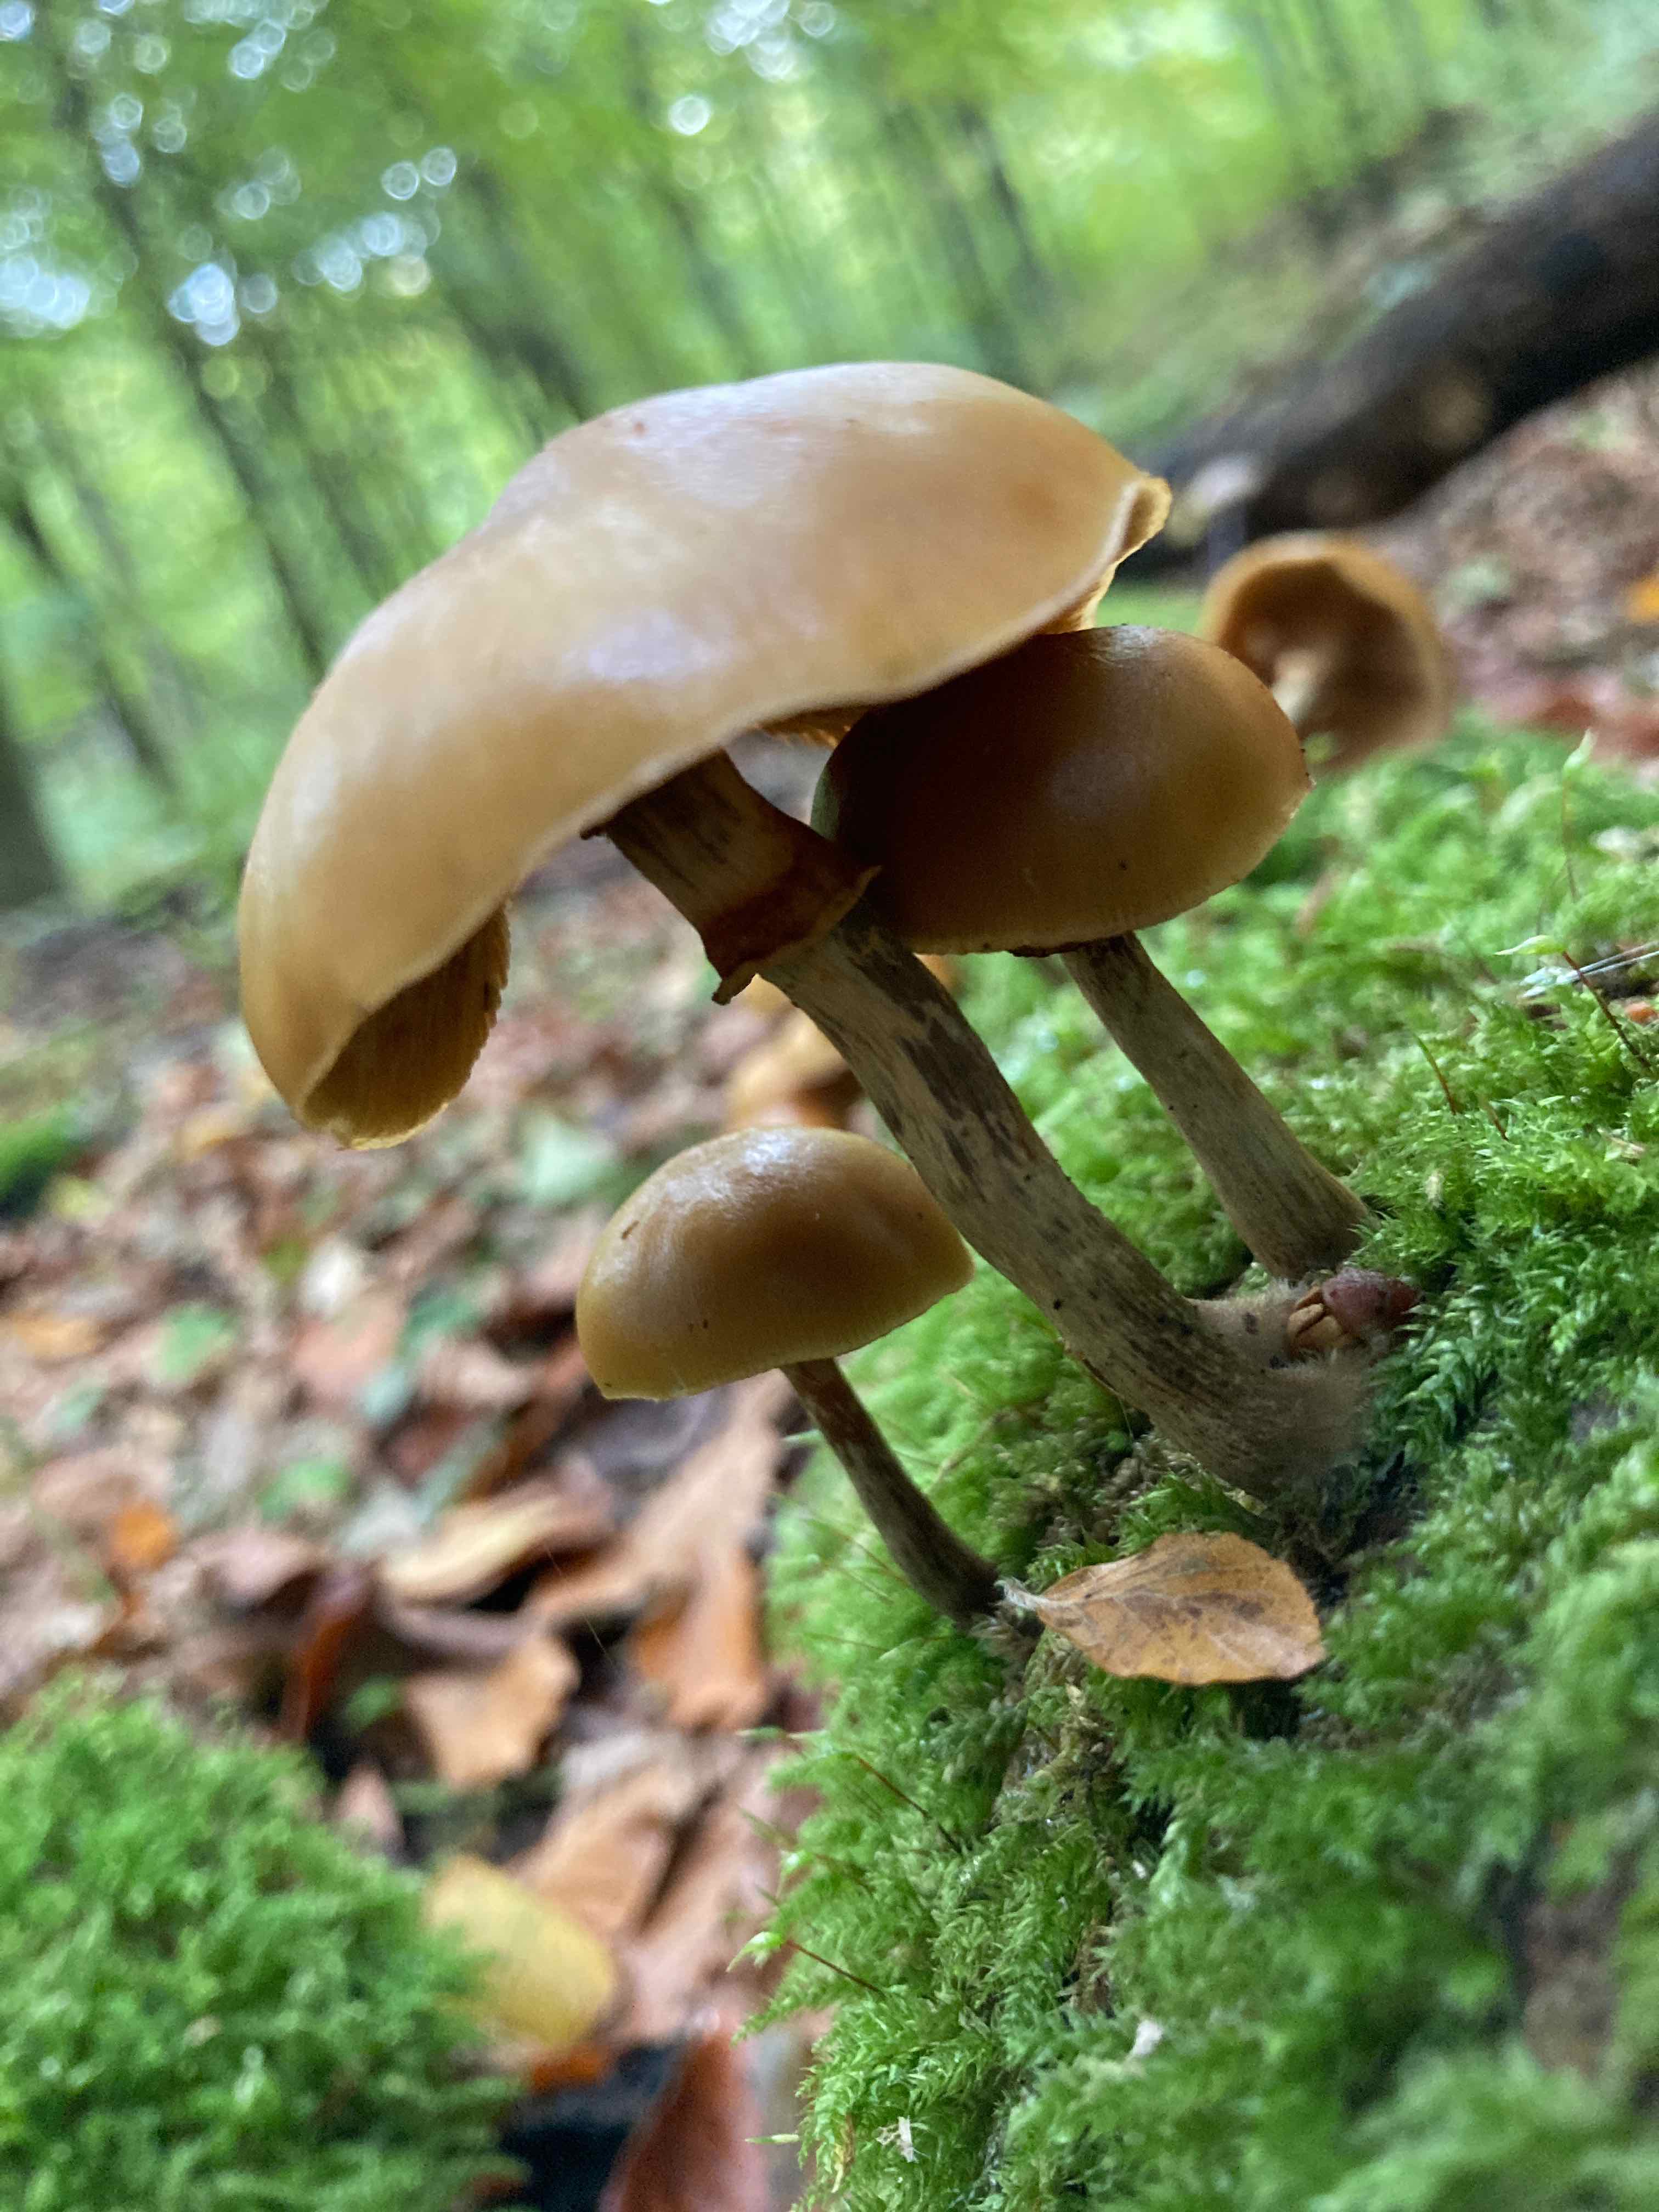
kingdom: Fungi
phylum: Basidiomycota
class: Agaricomycetes
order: Agaricales
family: Hymenogastraceae
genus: Galerina
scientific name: Galerina marginata
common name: randbæltet hjelmhat
